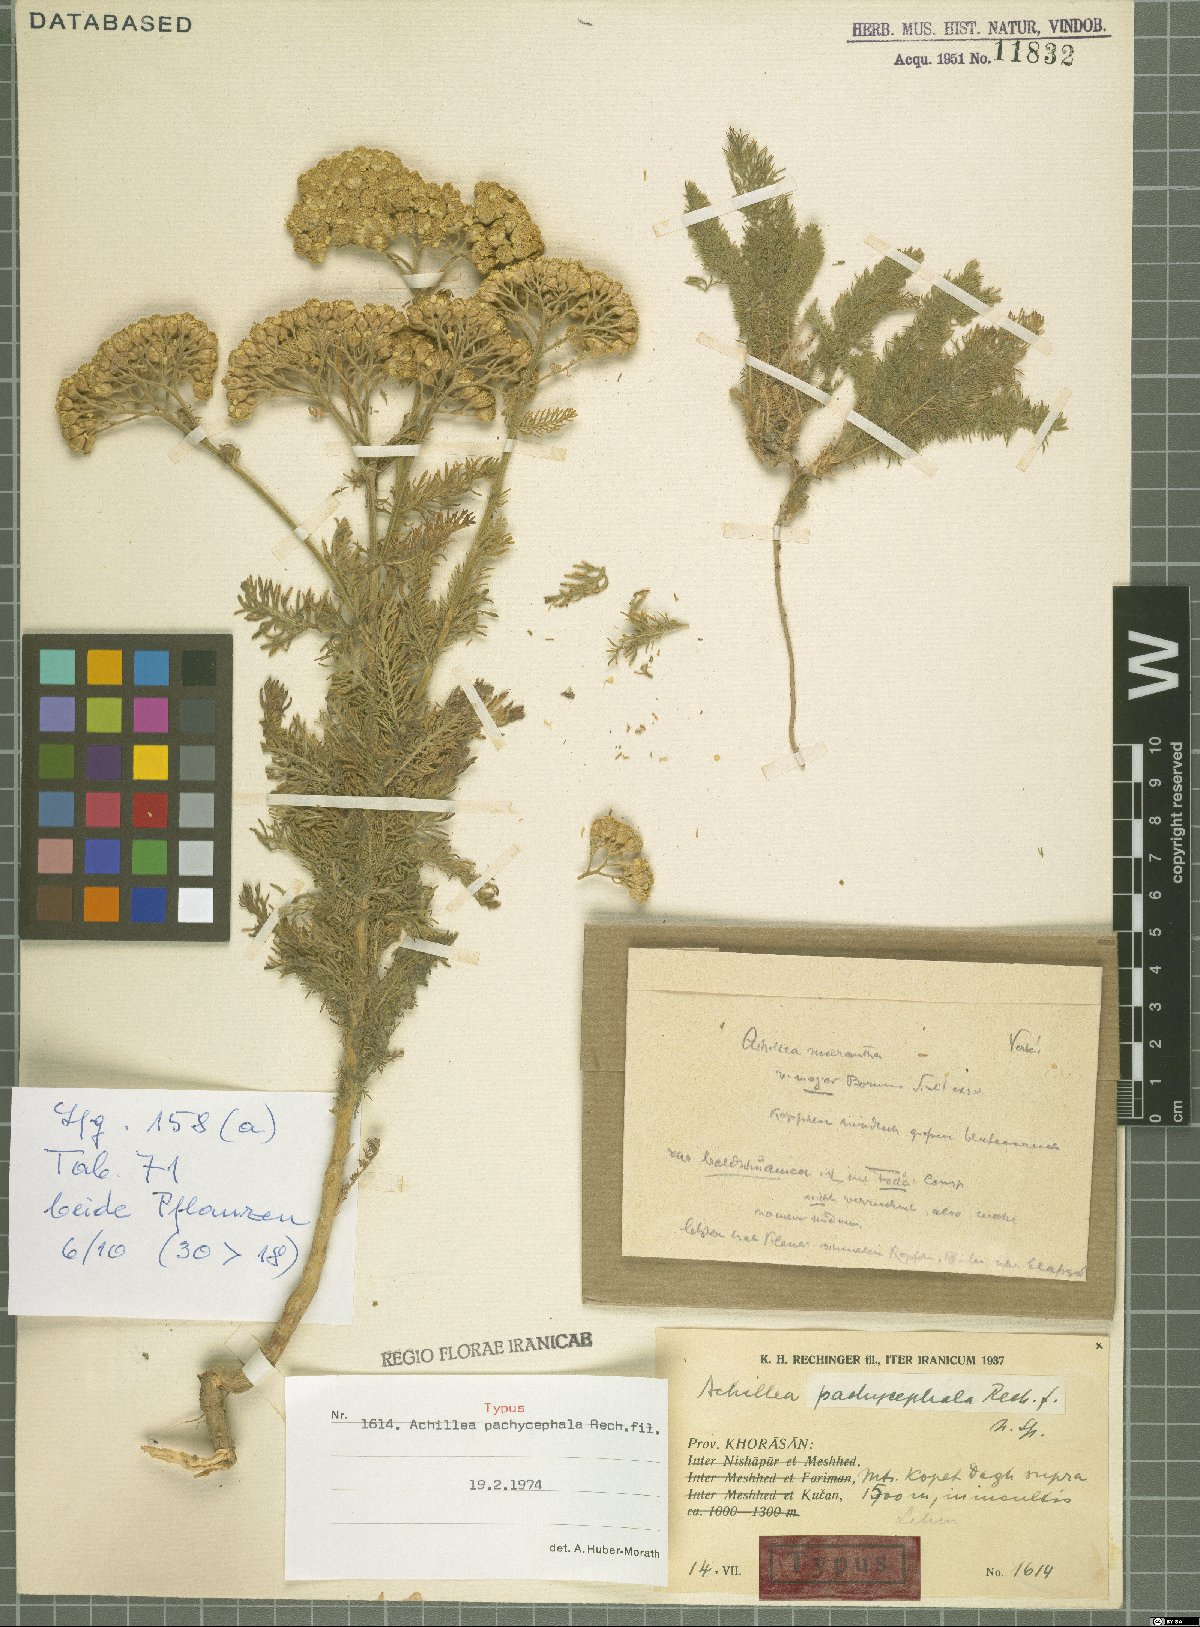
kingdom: Plantae
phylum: Tracheophyta
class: Magnoliopsida
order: Asterales
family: Asteraceae
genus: Achillea
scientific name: Achillea pachycephala
